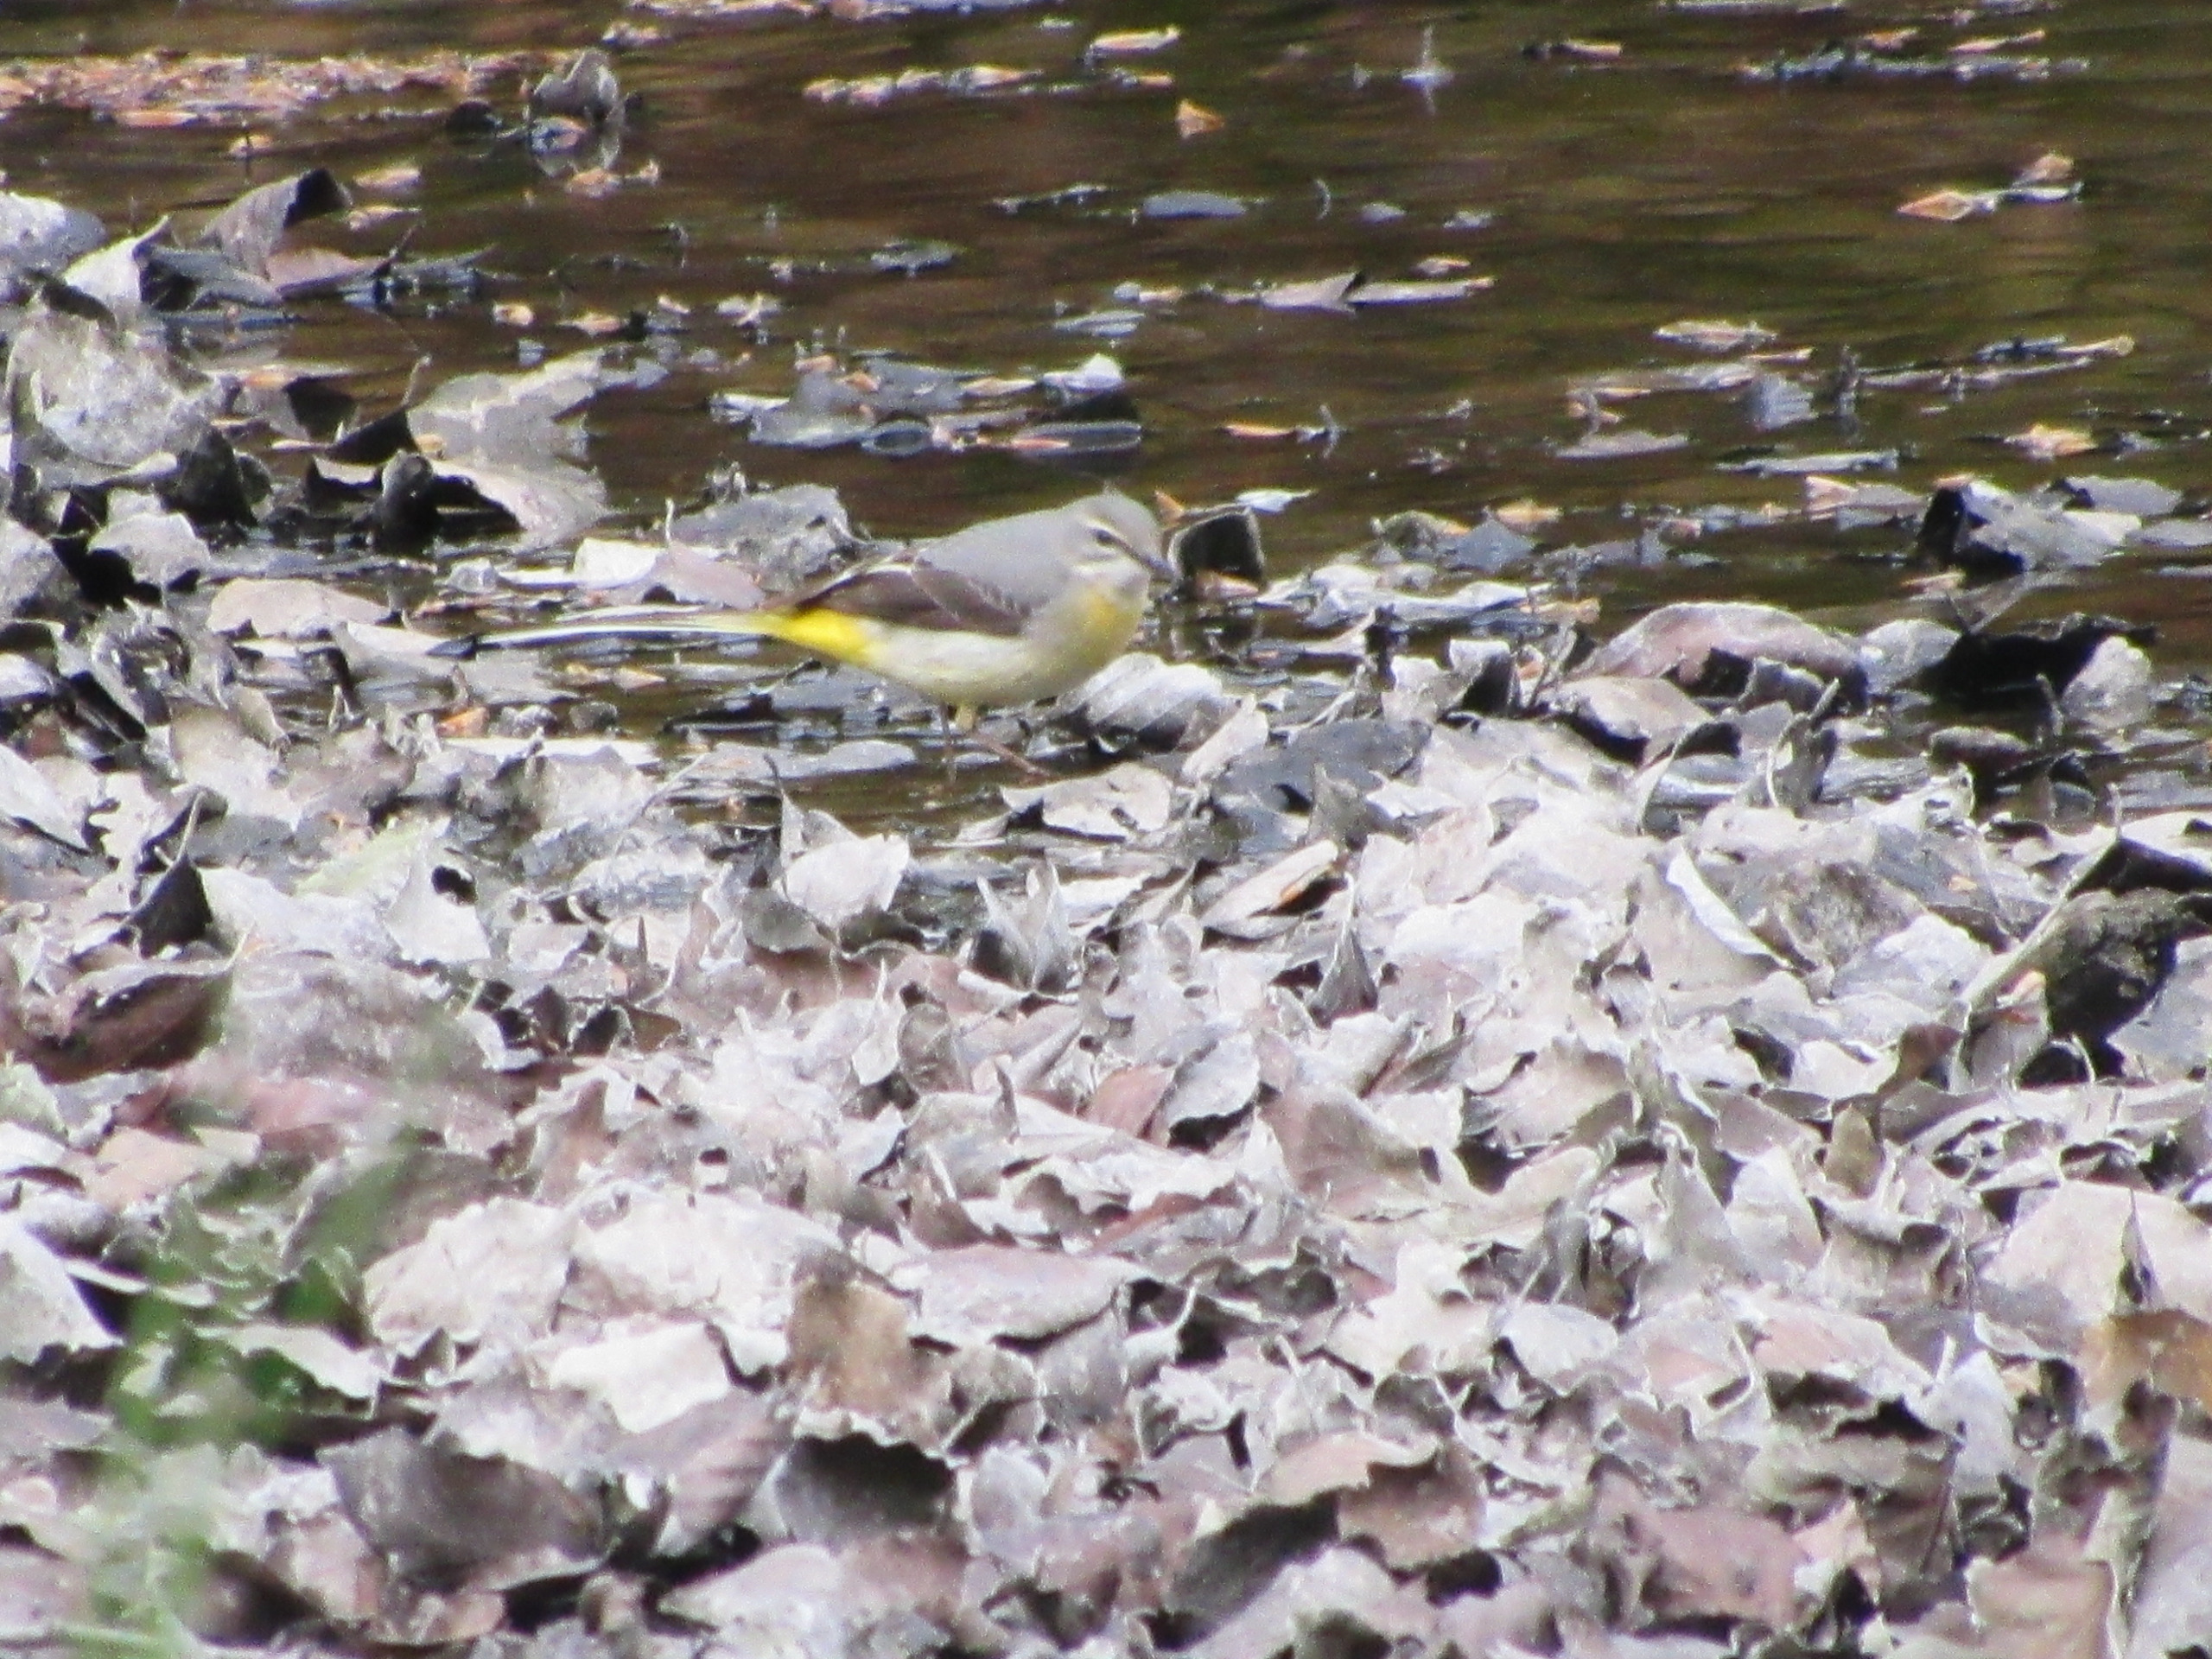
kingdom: Animalia
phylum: Chordata
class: Aves
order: Passeriformes
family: Motacillidae
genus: Motacilla
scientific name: Motacilla cinerea
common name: Bjergvipstjert
